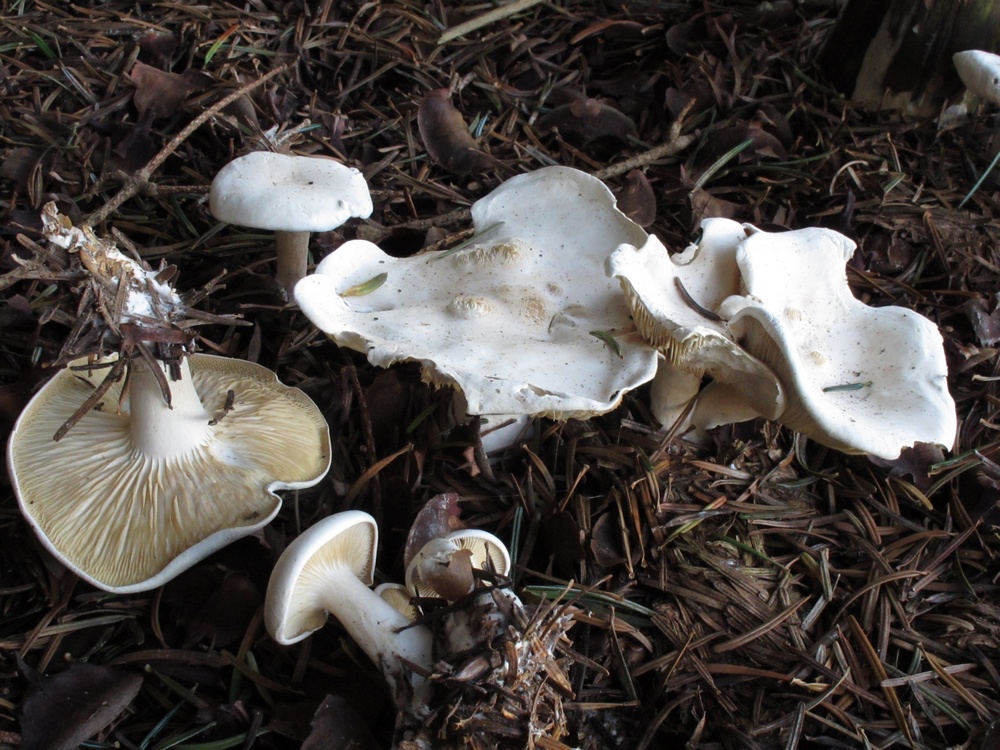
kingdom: Fungi
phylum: Basidiomycota
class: Agaricomycetes
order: Agaricales
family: Tricholomataceae
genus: Clitocybe
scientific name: Clitocybe phyllophila
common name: løv-tragthat
